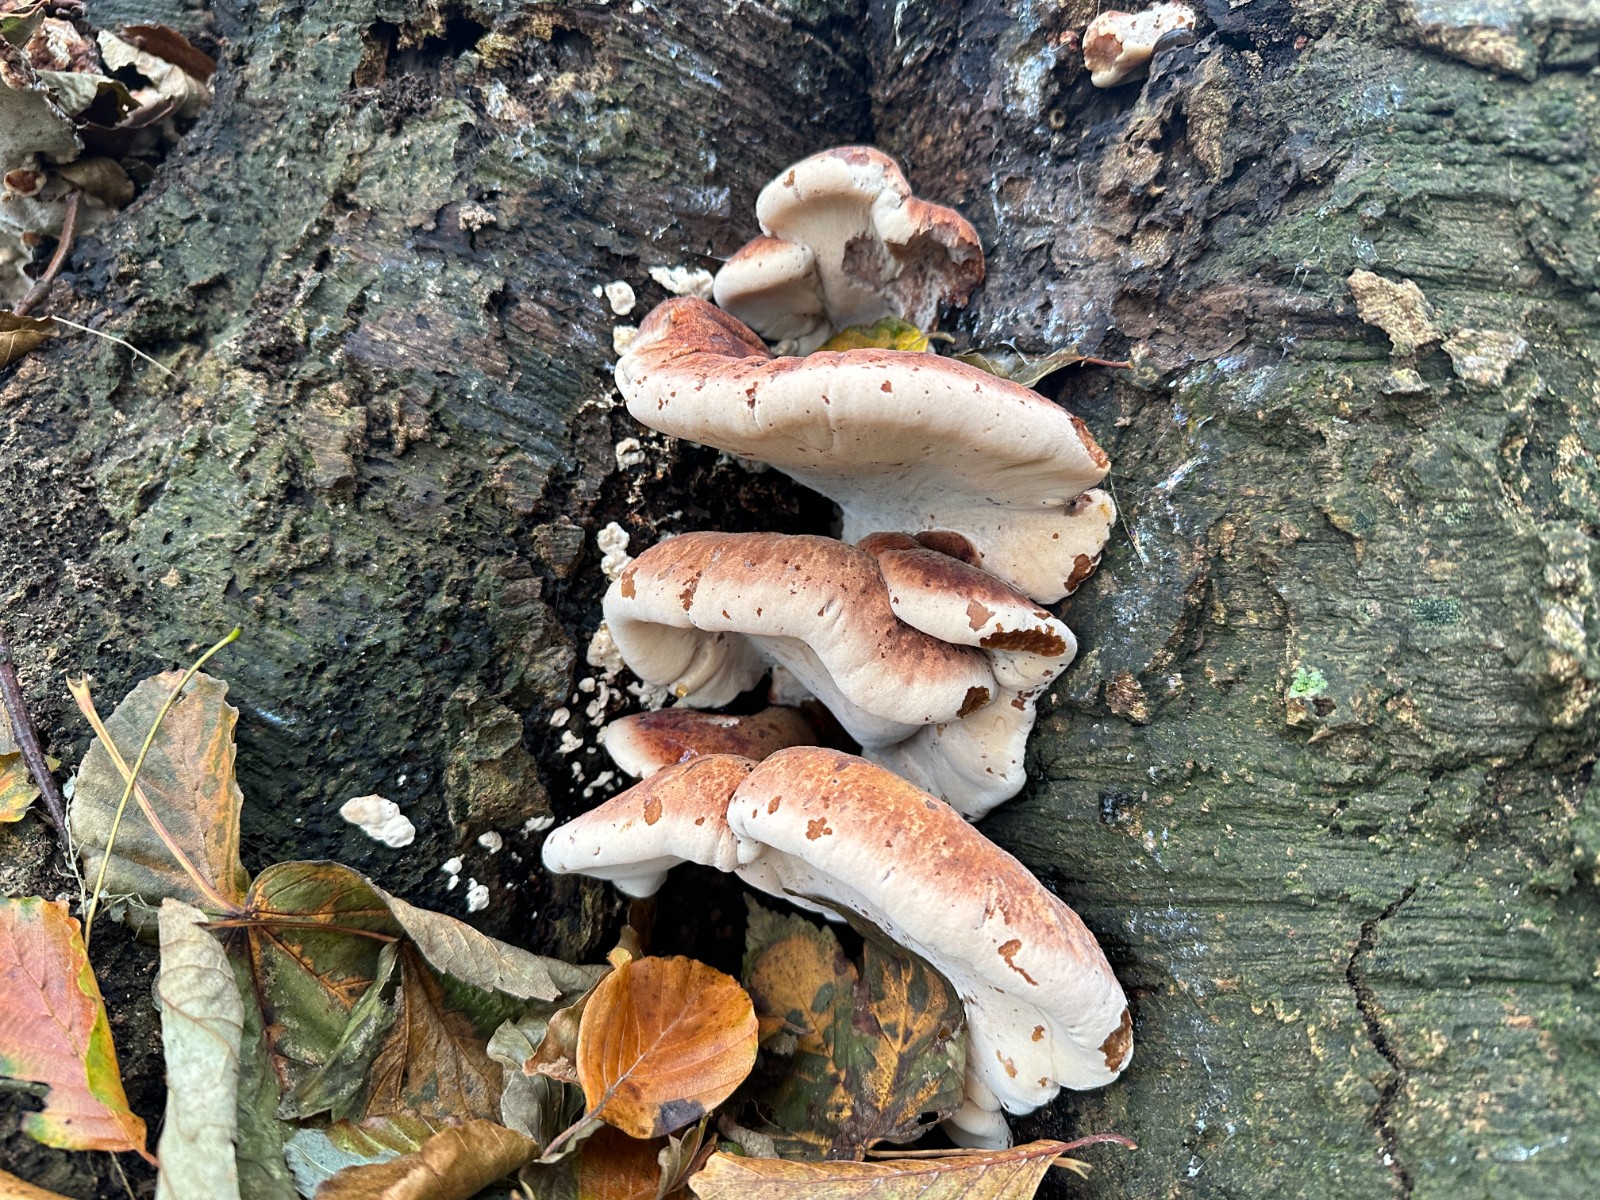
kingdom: Fungi
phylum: Basidiomycota
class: Agaricomycetes
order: Polyporales
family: Ischnodermataceae
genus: Ischnoderma
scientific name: Ischnoderma resinosum
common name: løv-tjæreporesvamp
